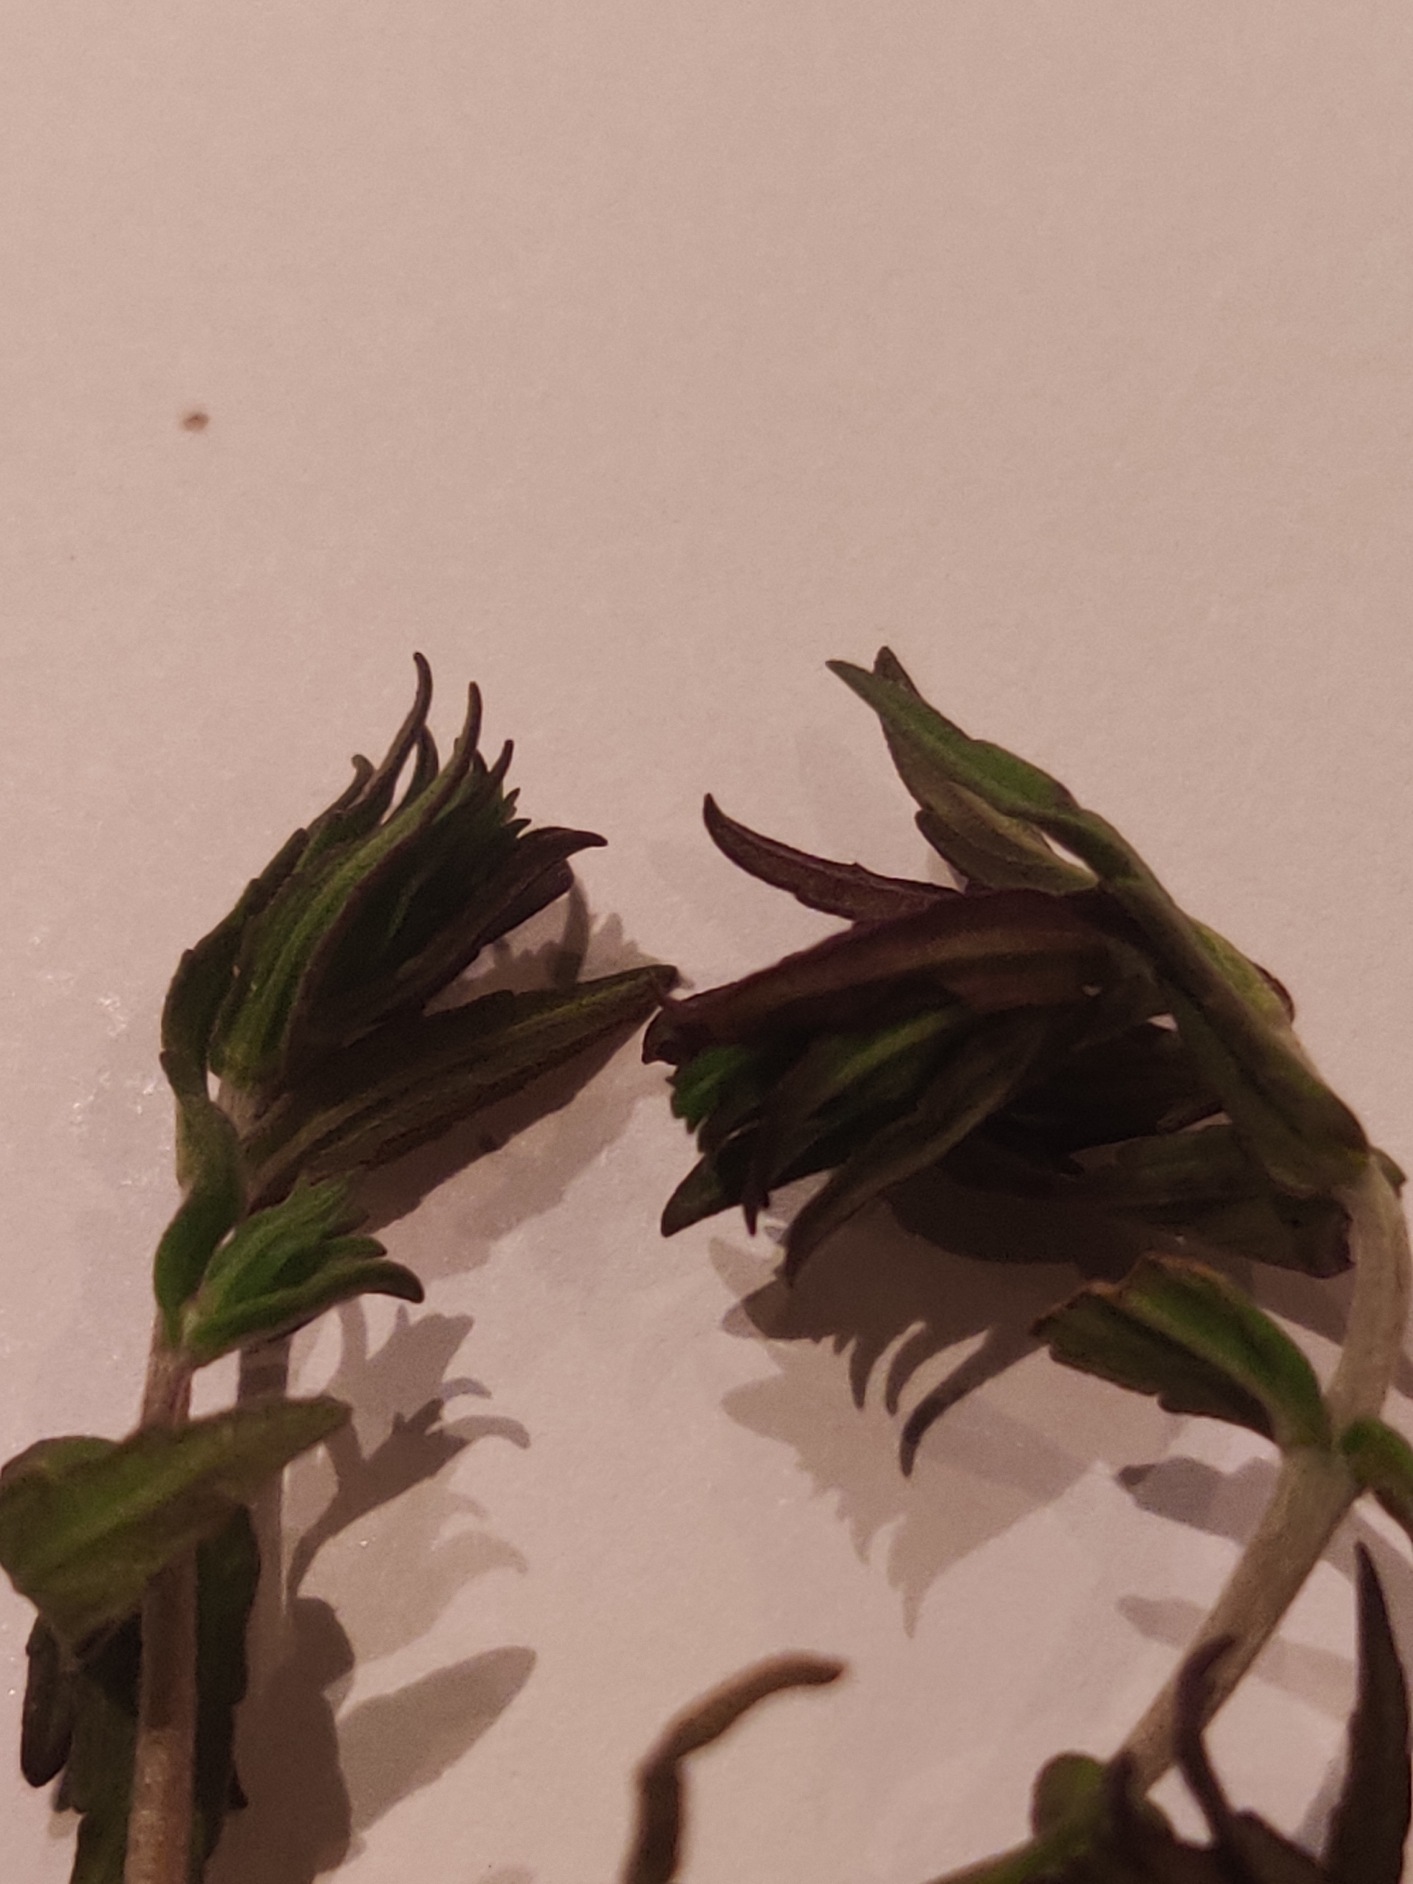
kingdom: Plantae
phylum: Tracheophyta
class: Magnoliopsida
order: Lamiales
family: Orobanchaceae
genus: Odontites
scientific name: Odontites
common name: Rødtopslægten
